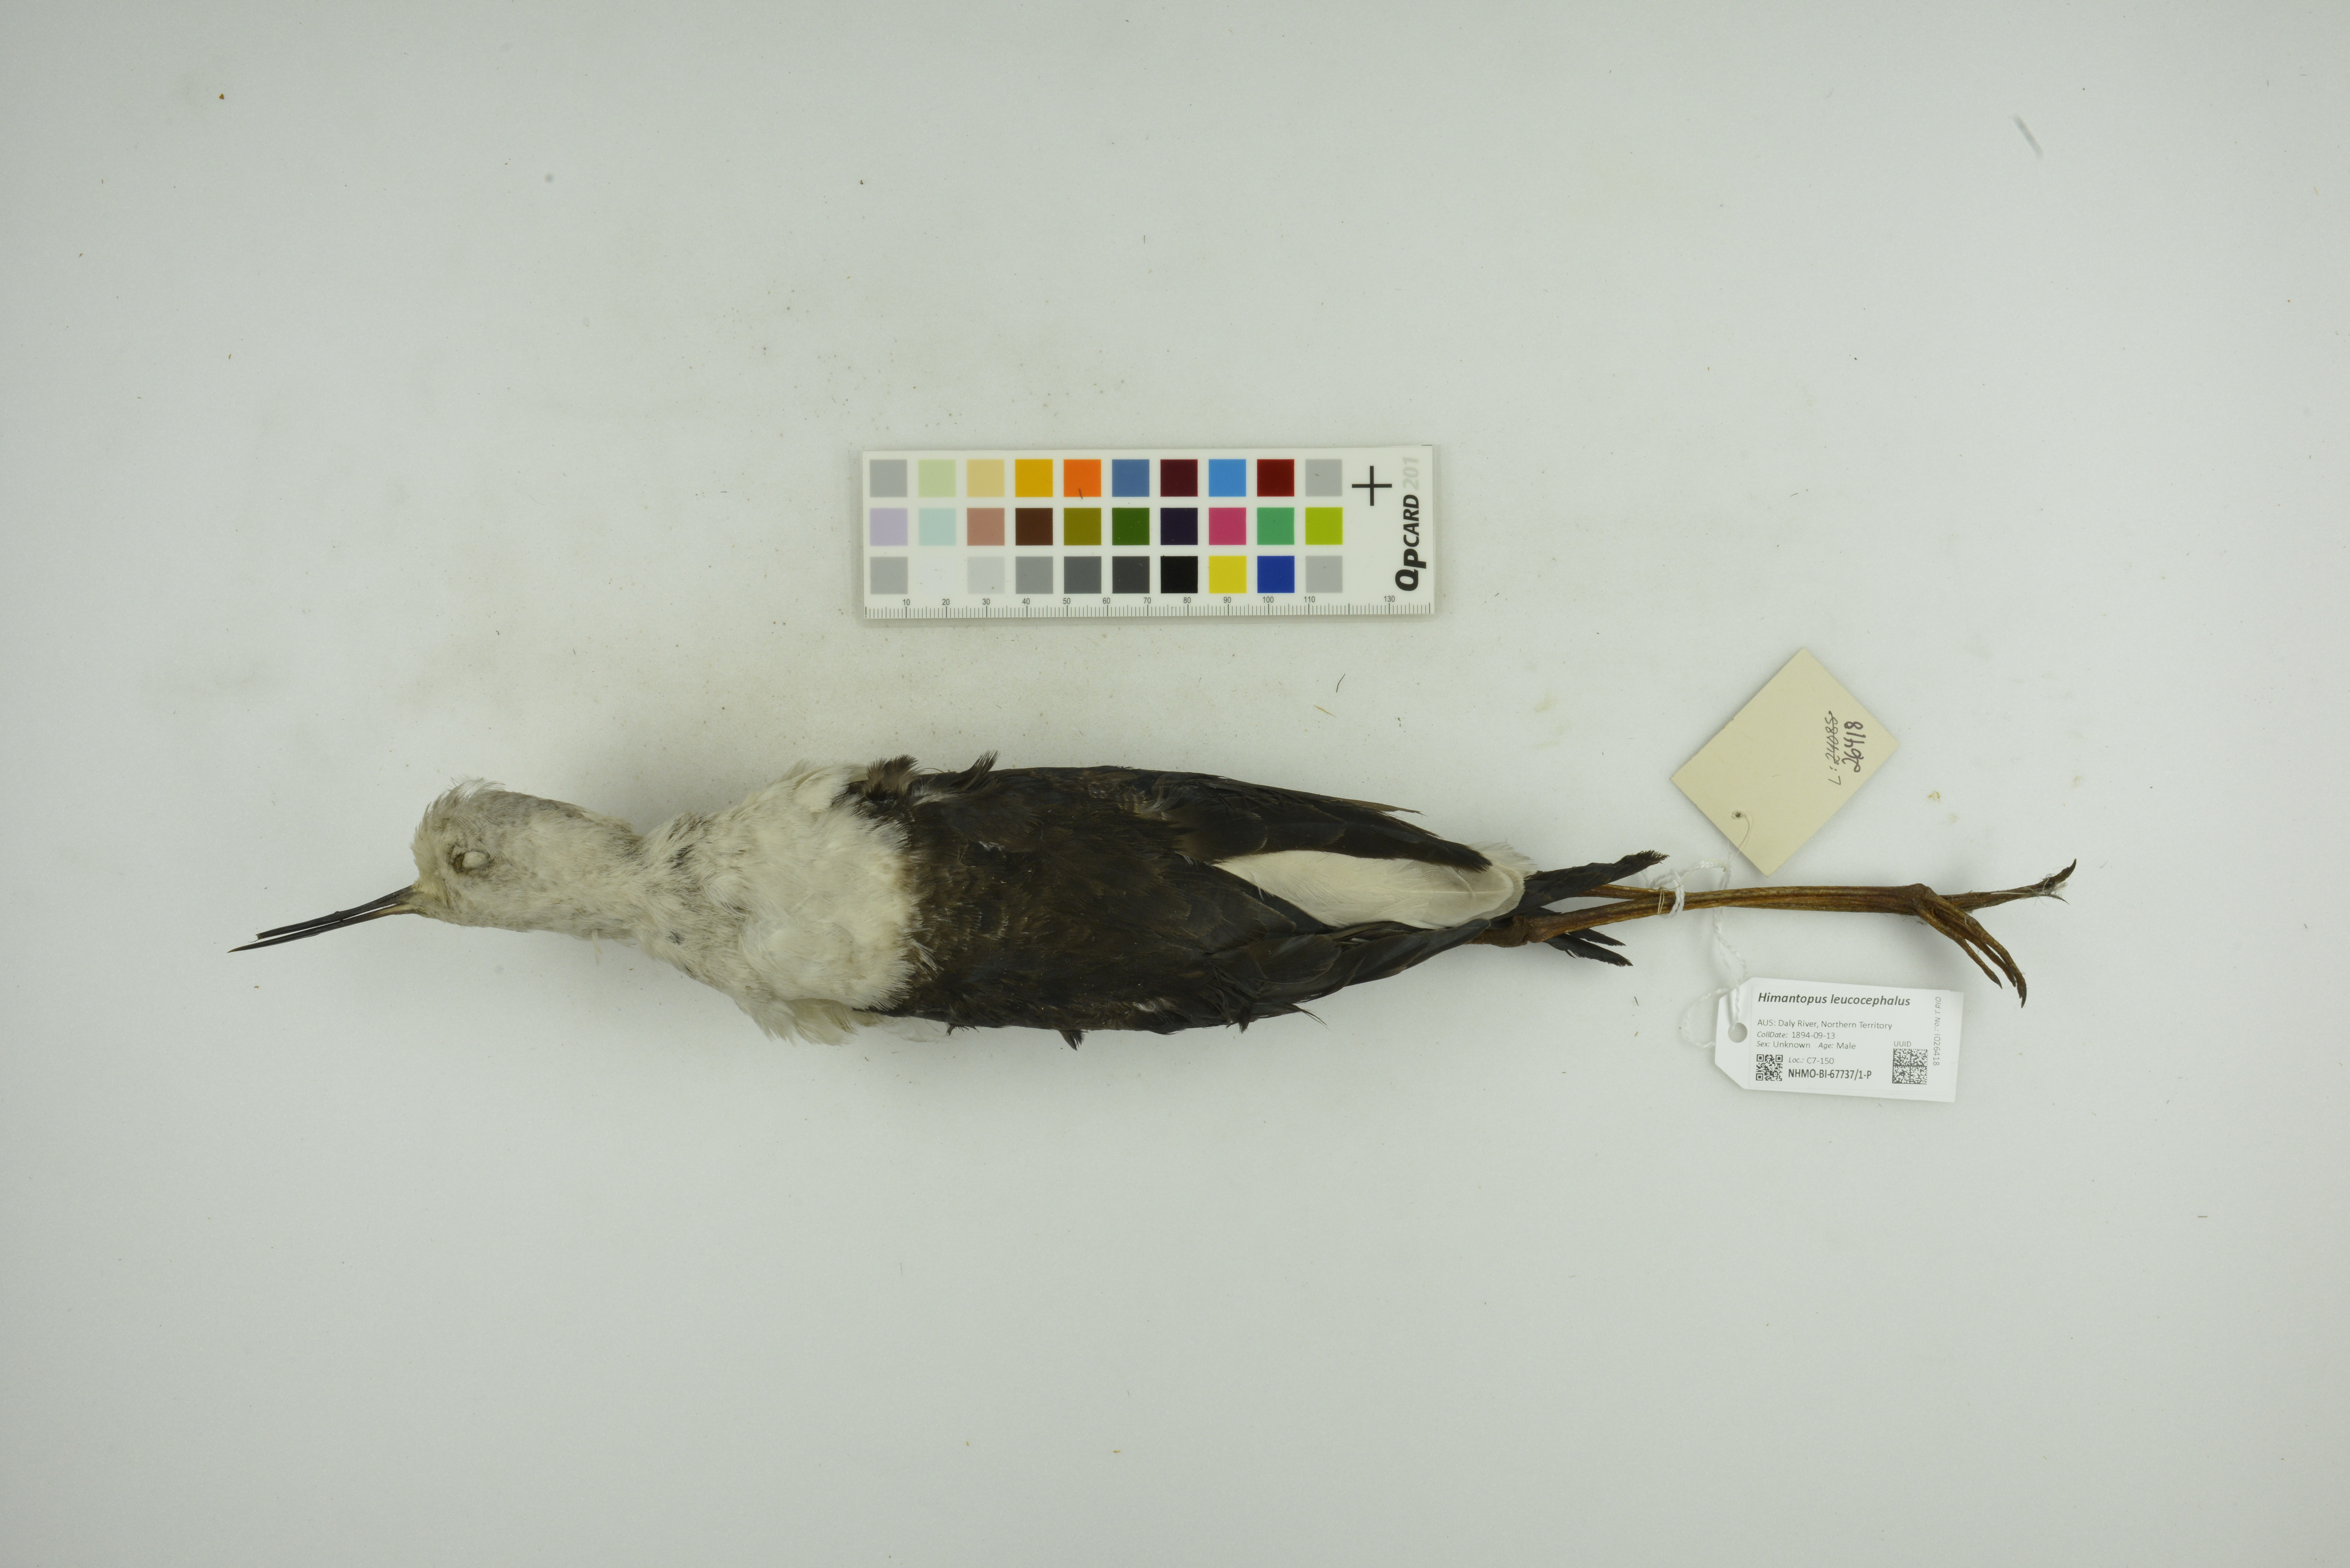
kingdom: Animalia
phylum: Chordata
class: Aves
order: Charadriiformes
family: Recurvirostridae
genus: Himantopus
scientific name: Himantopus leucocephalus
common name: White-headed stilt
